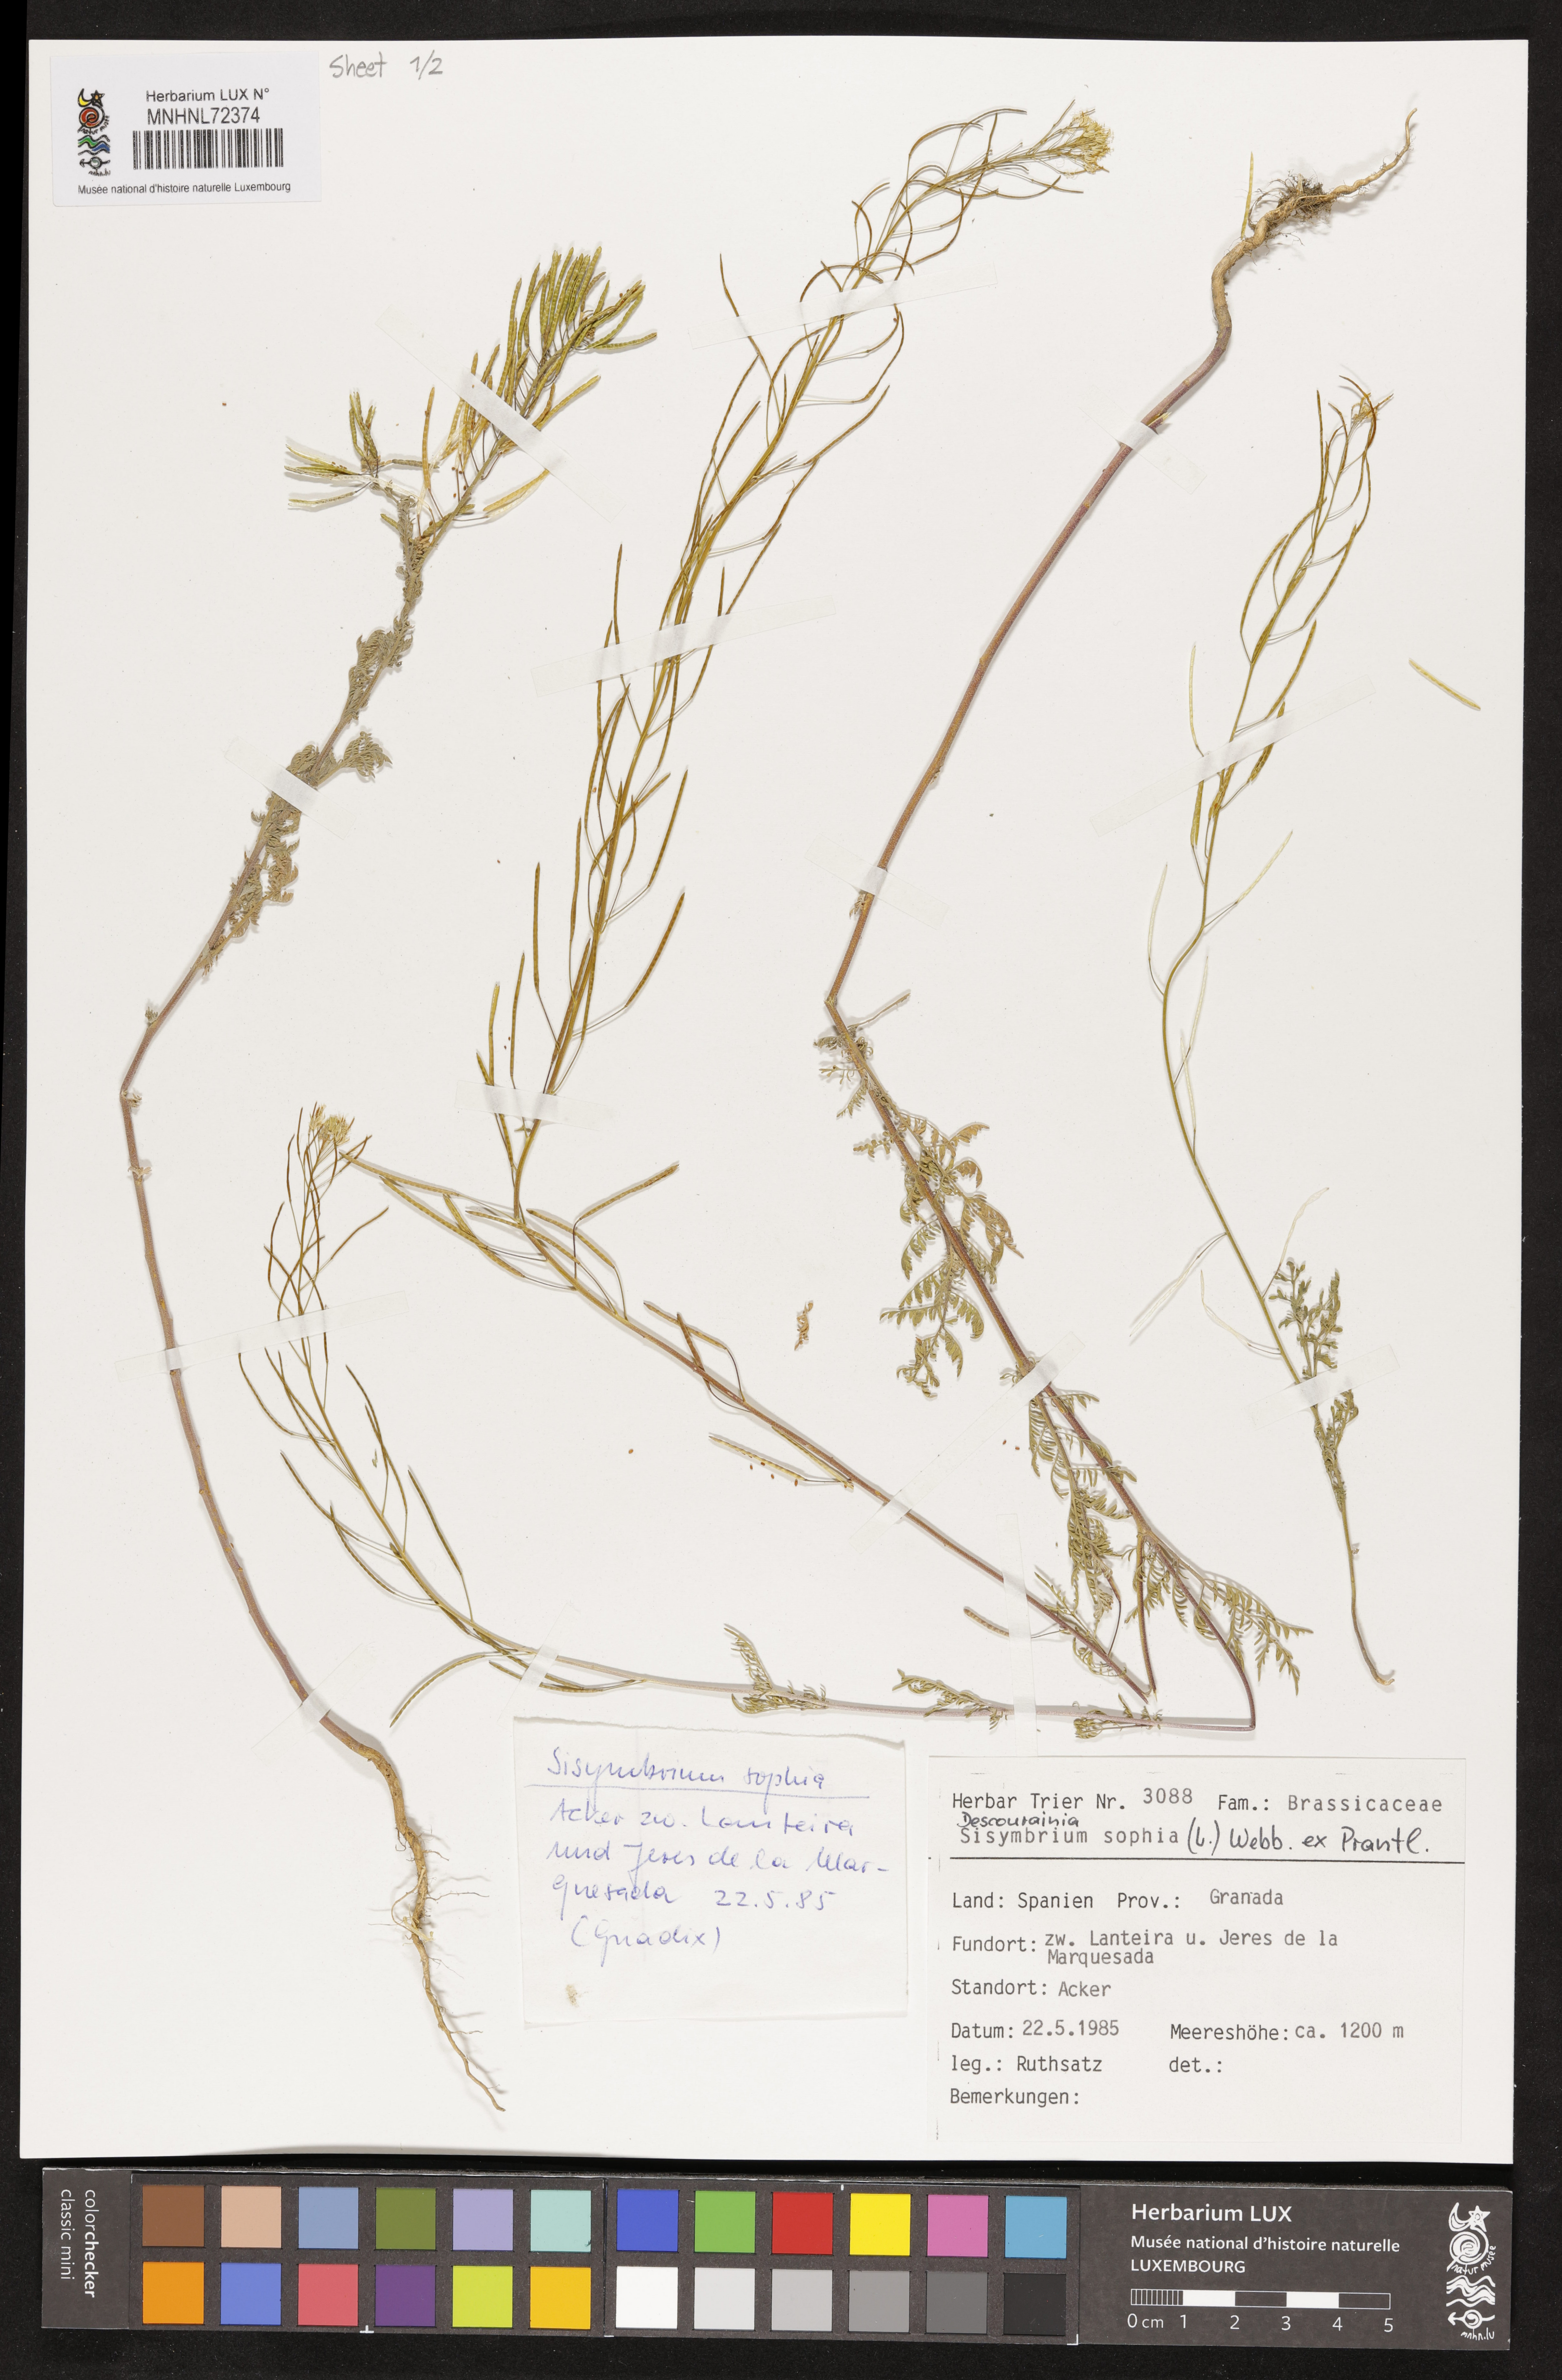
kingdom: Plantae
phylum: Tracheophyta
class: Magnoliopsida
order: Brassicales
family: Brassicaceae
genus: Descurainia
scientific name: Descurainia sophia
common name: Flixweed
